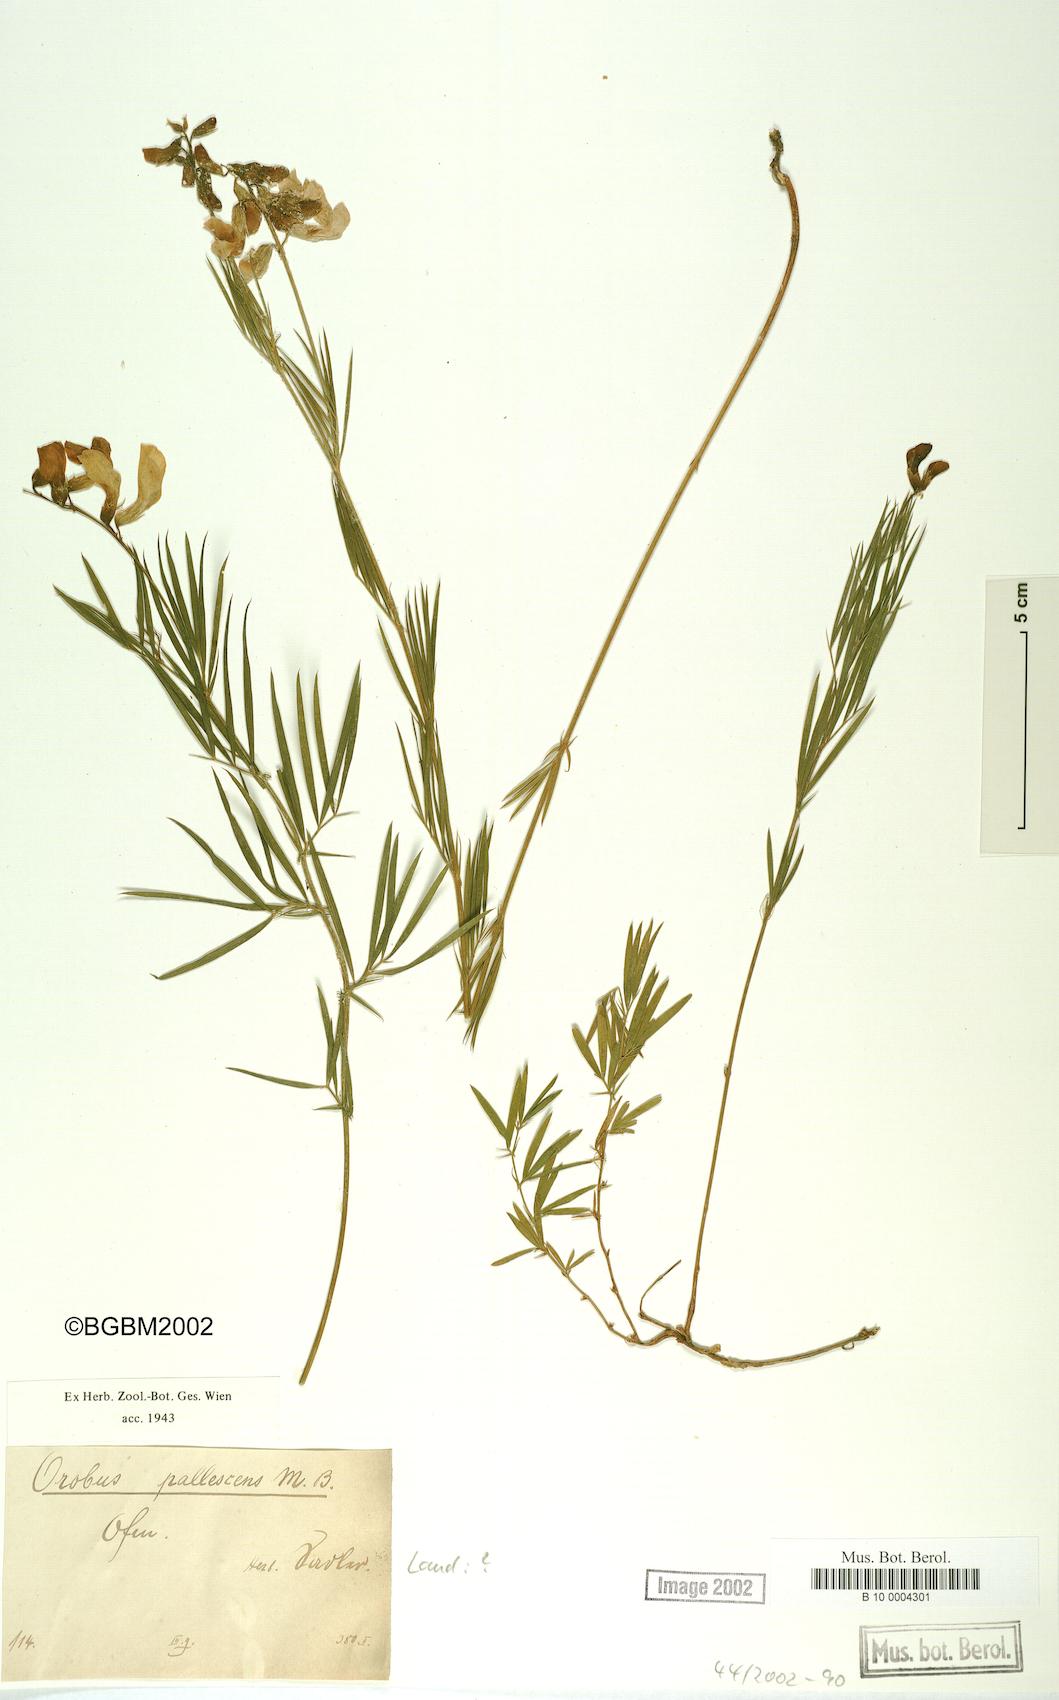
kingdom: Plantae
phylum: Tracheophyta
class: Magnoliopsida
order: Fabales
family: Fabaceae
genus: Lathyrus
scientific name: Lathyrus filiformis
